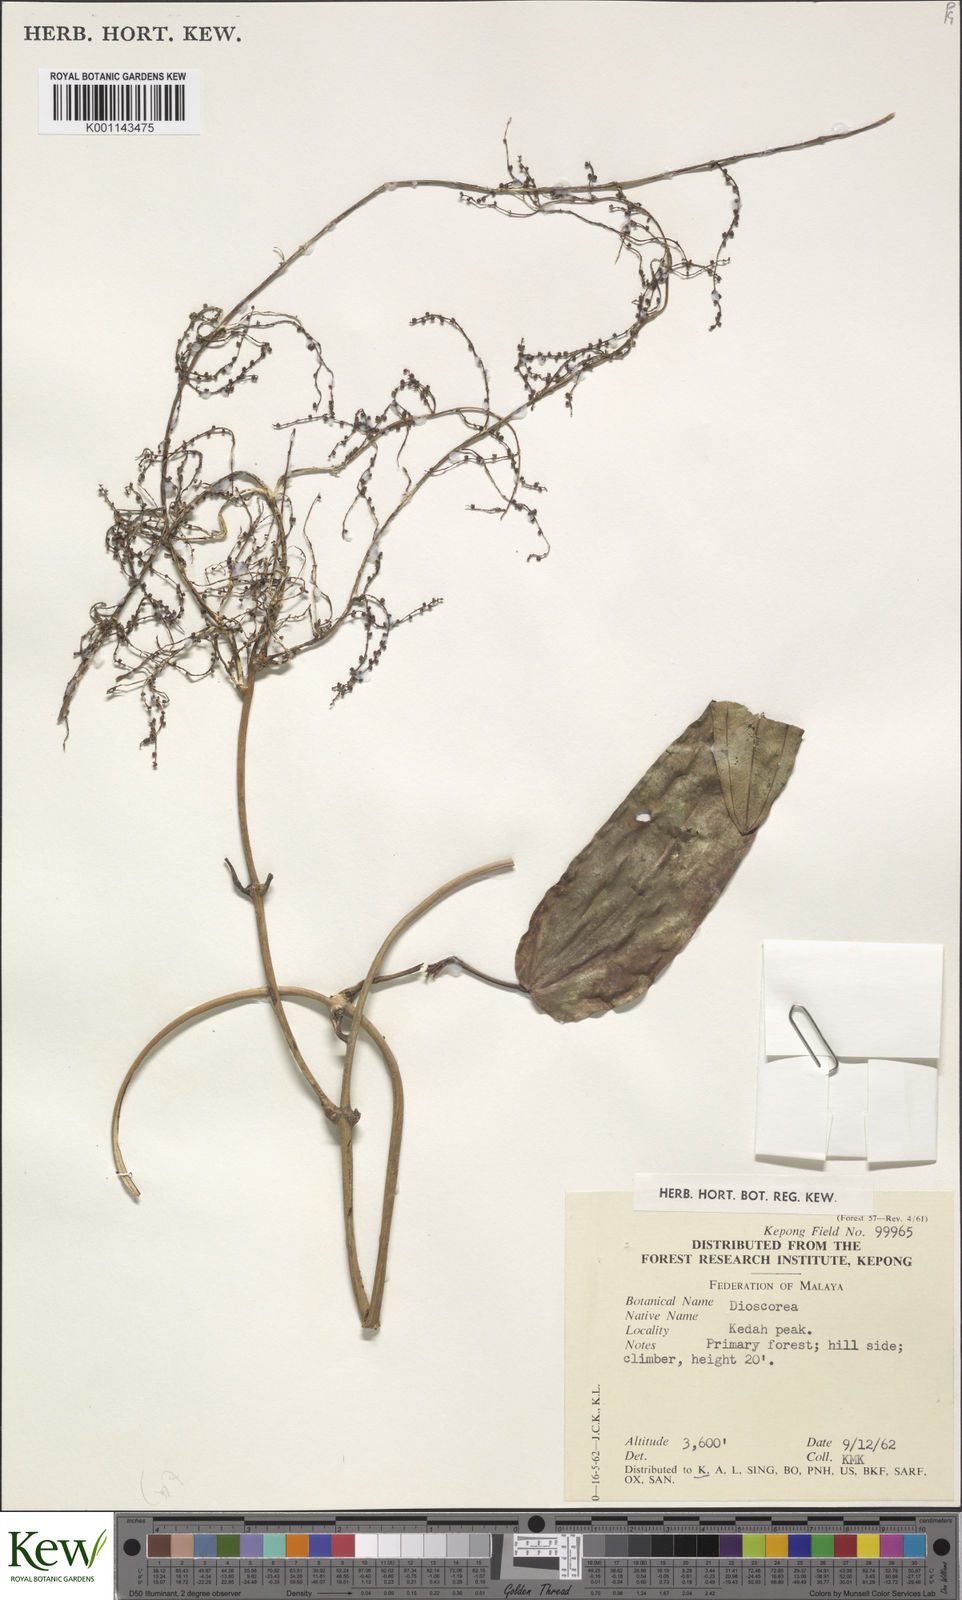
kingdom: Plantae
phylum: Tracheophyta
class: Liliopsida
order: Dioscoreales
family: Dioscoreaceae
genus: Dioscorea
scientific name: Dioscorea
